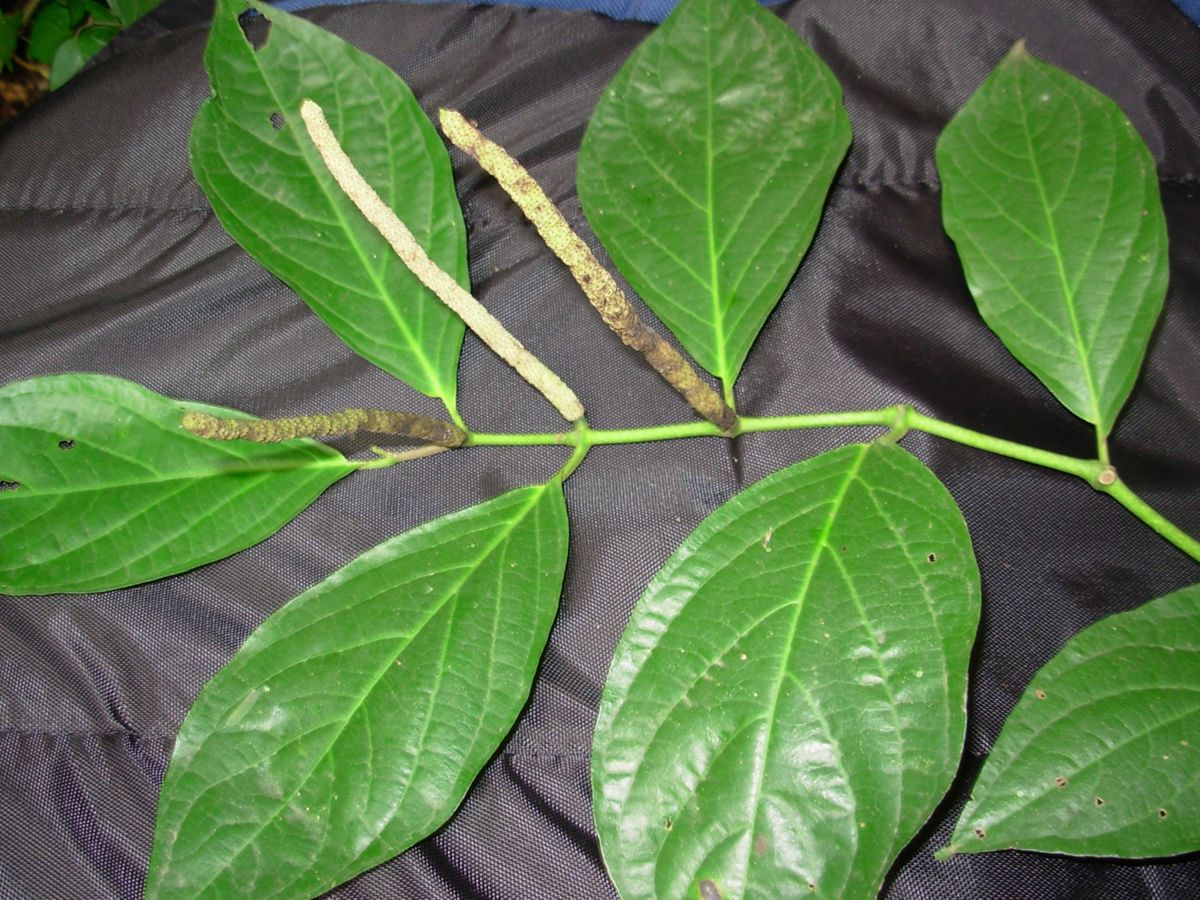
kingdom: Plantae
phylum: Tracheophyta
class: Magnoliopsida
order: Piperales
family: Piperaceae
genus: Piper
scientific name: Piper kerberi
